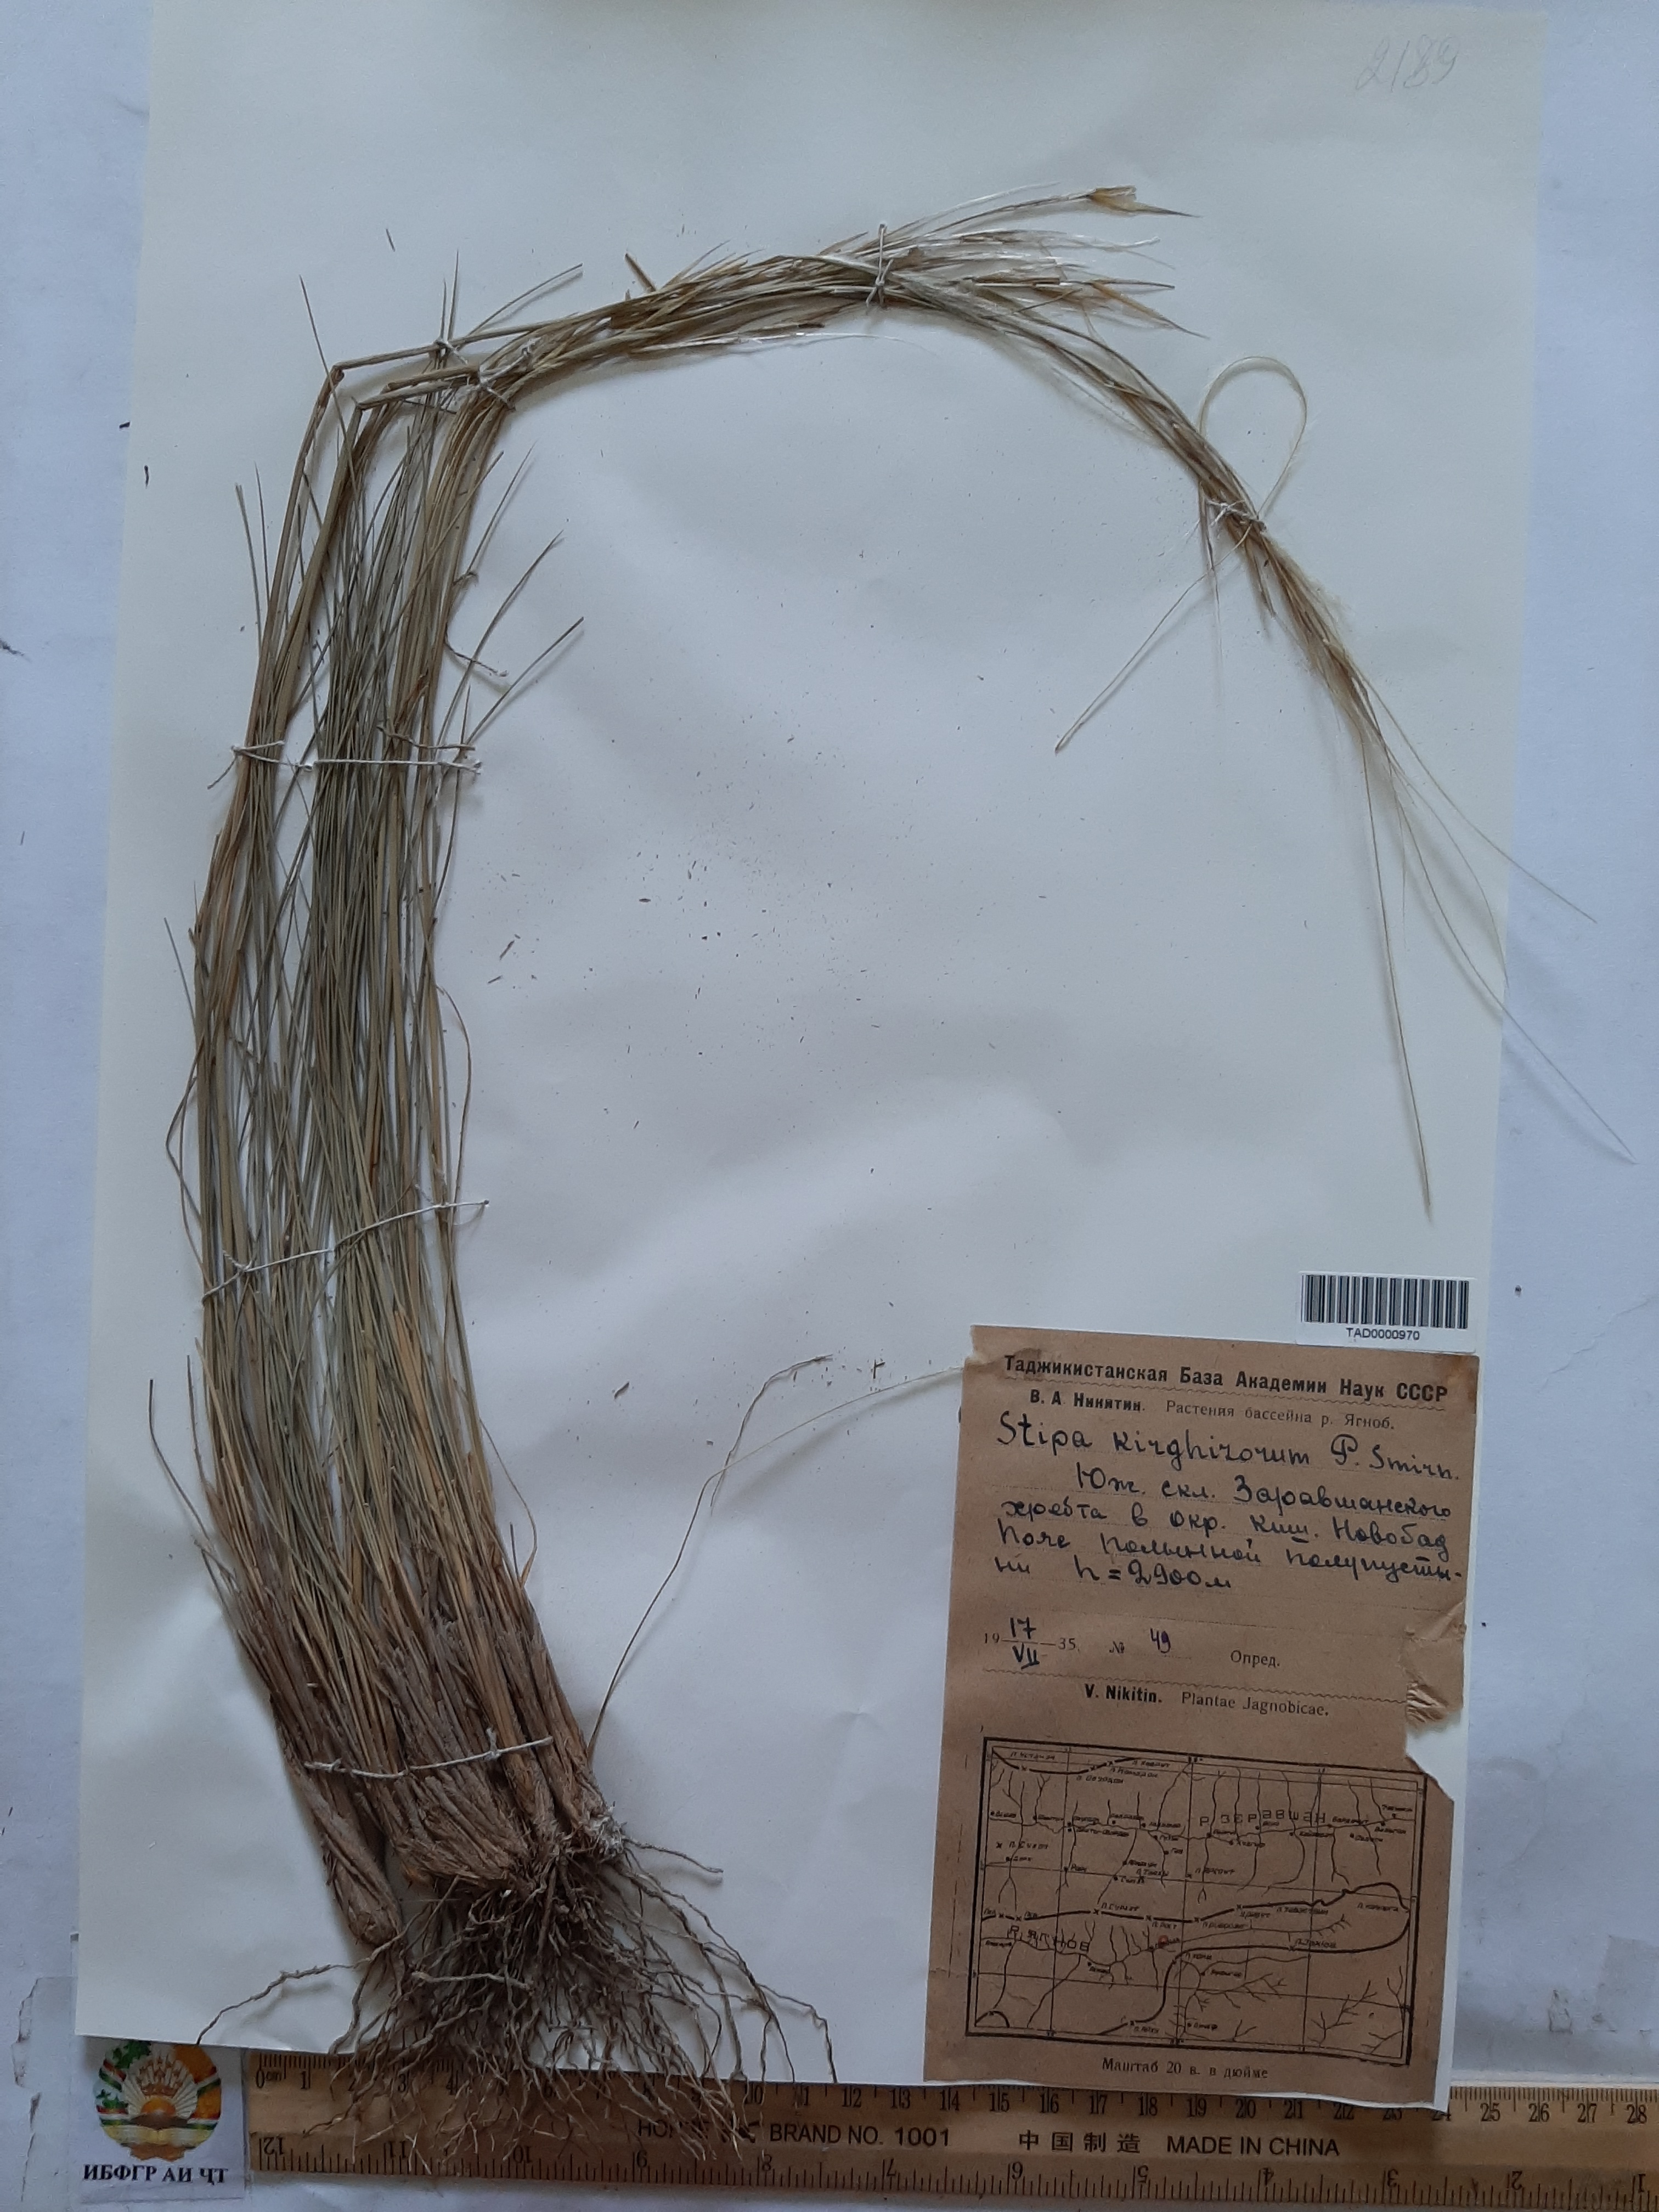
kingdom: Plantae
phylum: Tracheophyta
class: Liliopsida
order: Poales
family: Poaceae
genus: Stipa
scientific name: Stipa kirghisorum
